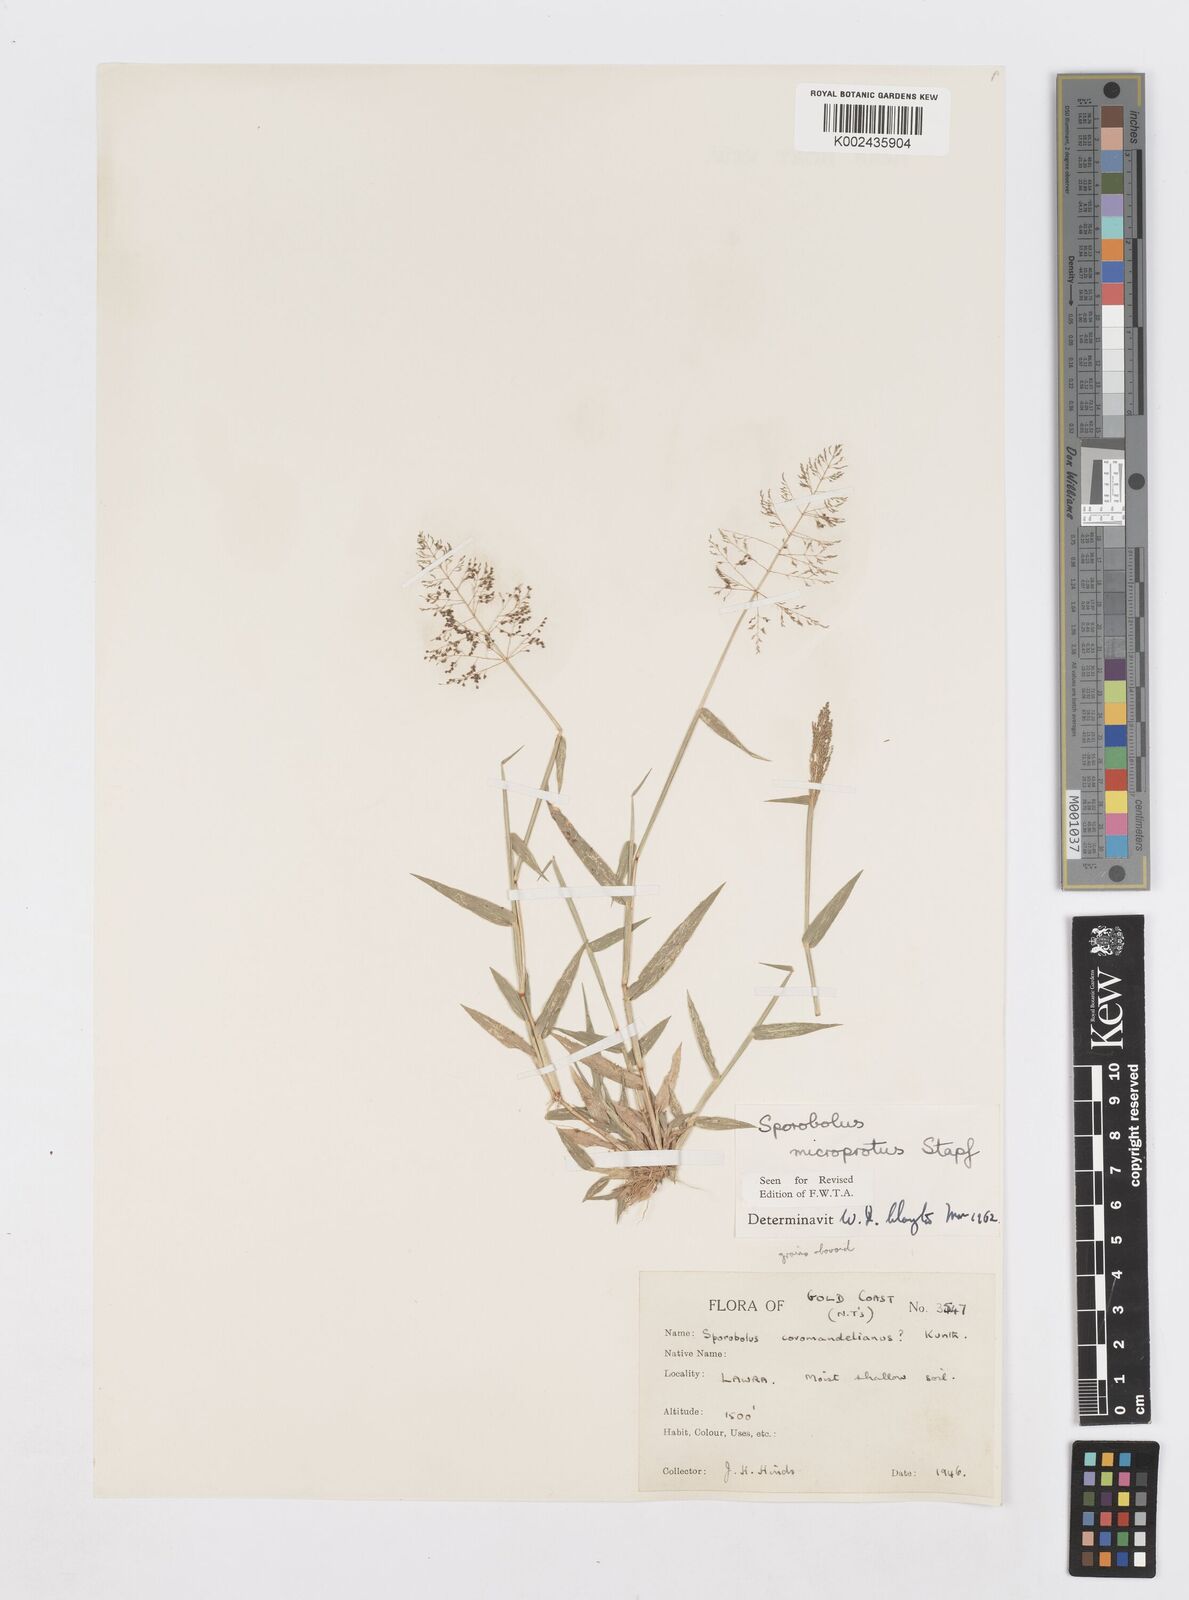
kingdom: Plantae
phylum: Tracheophyta
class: Liliopsida
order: Poales
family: Poaceae
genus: Sporobolus
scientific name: Sporobolus microprotus
